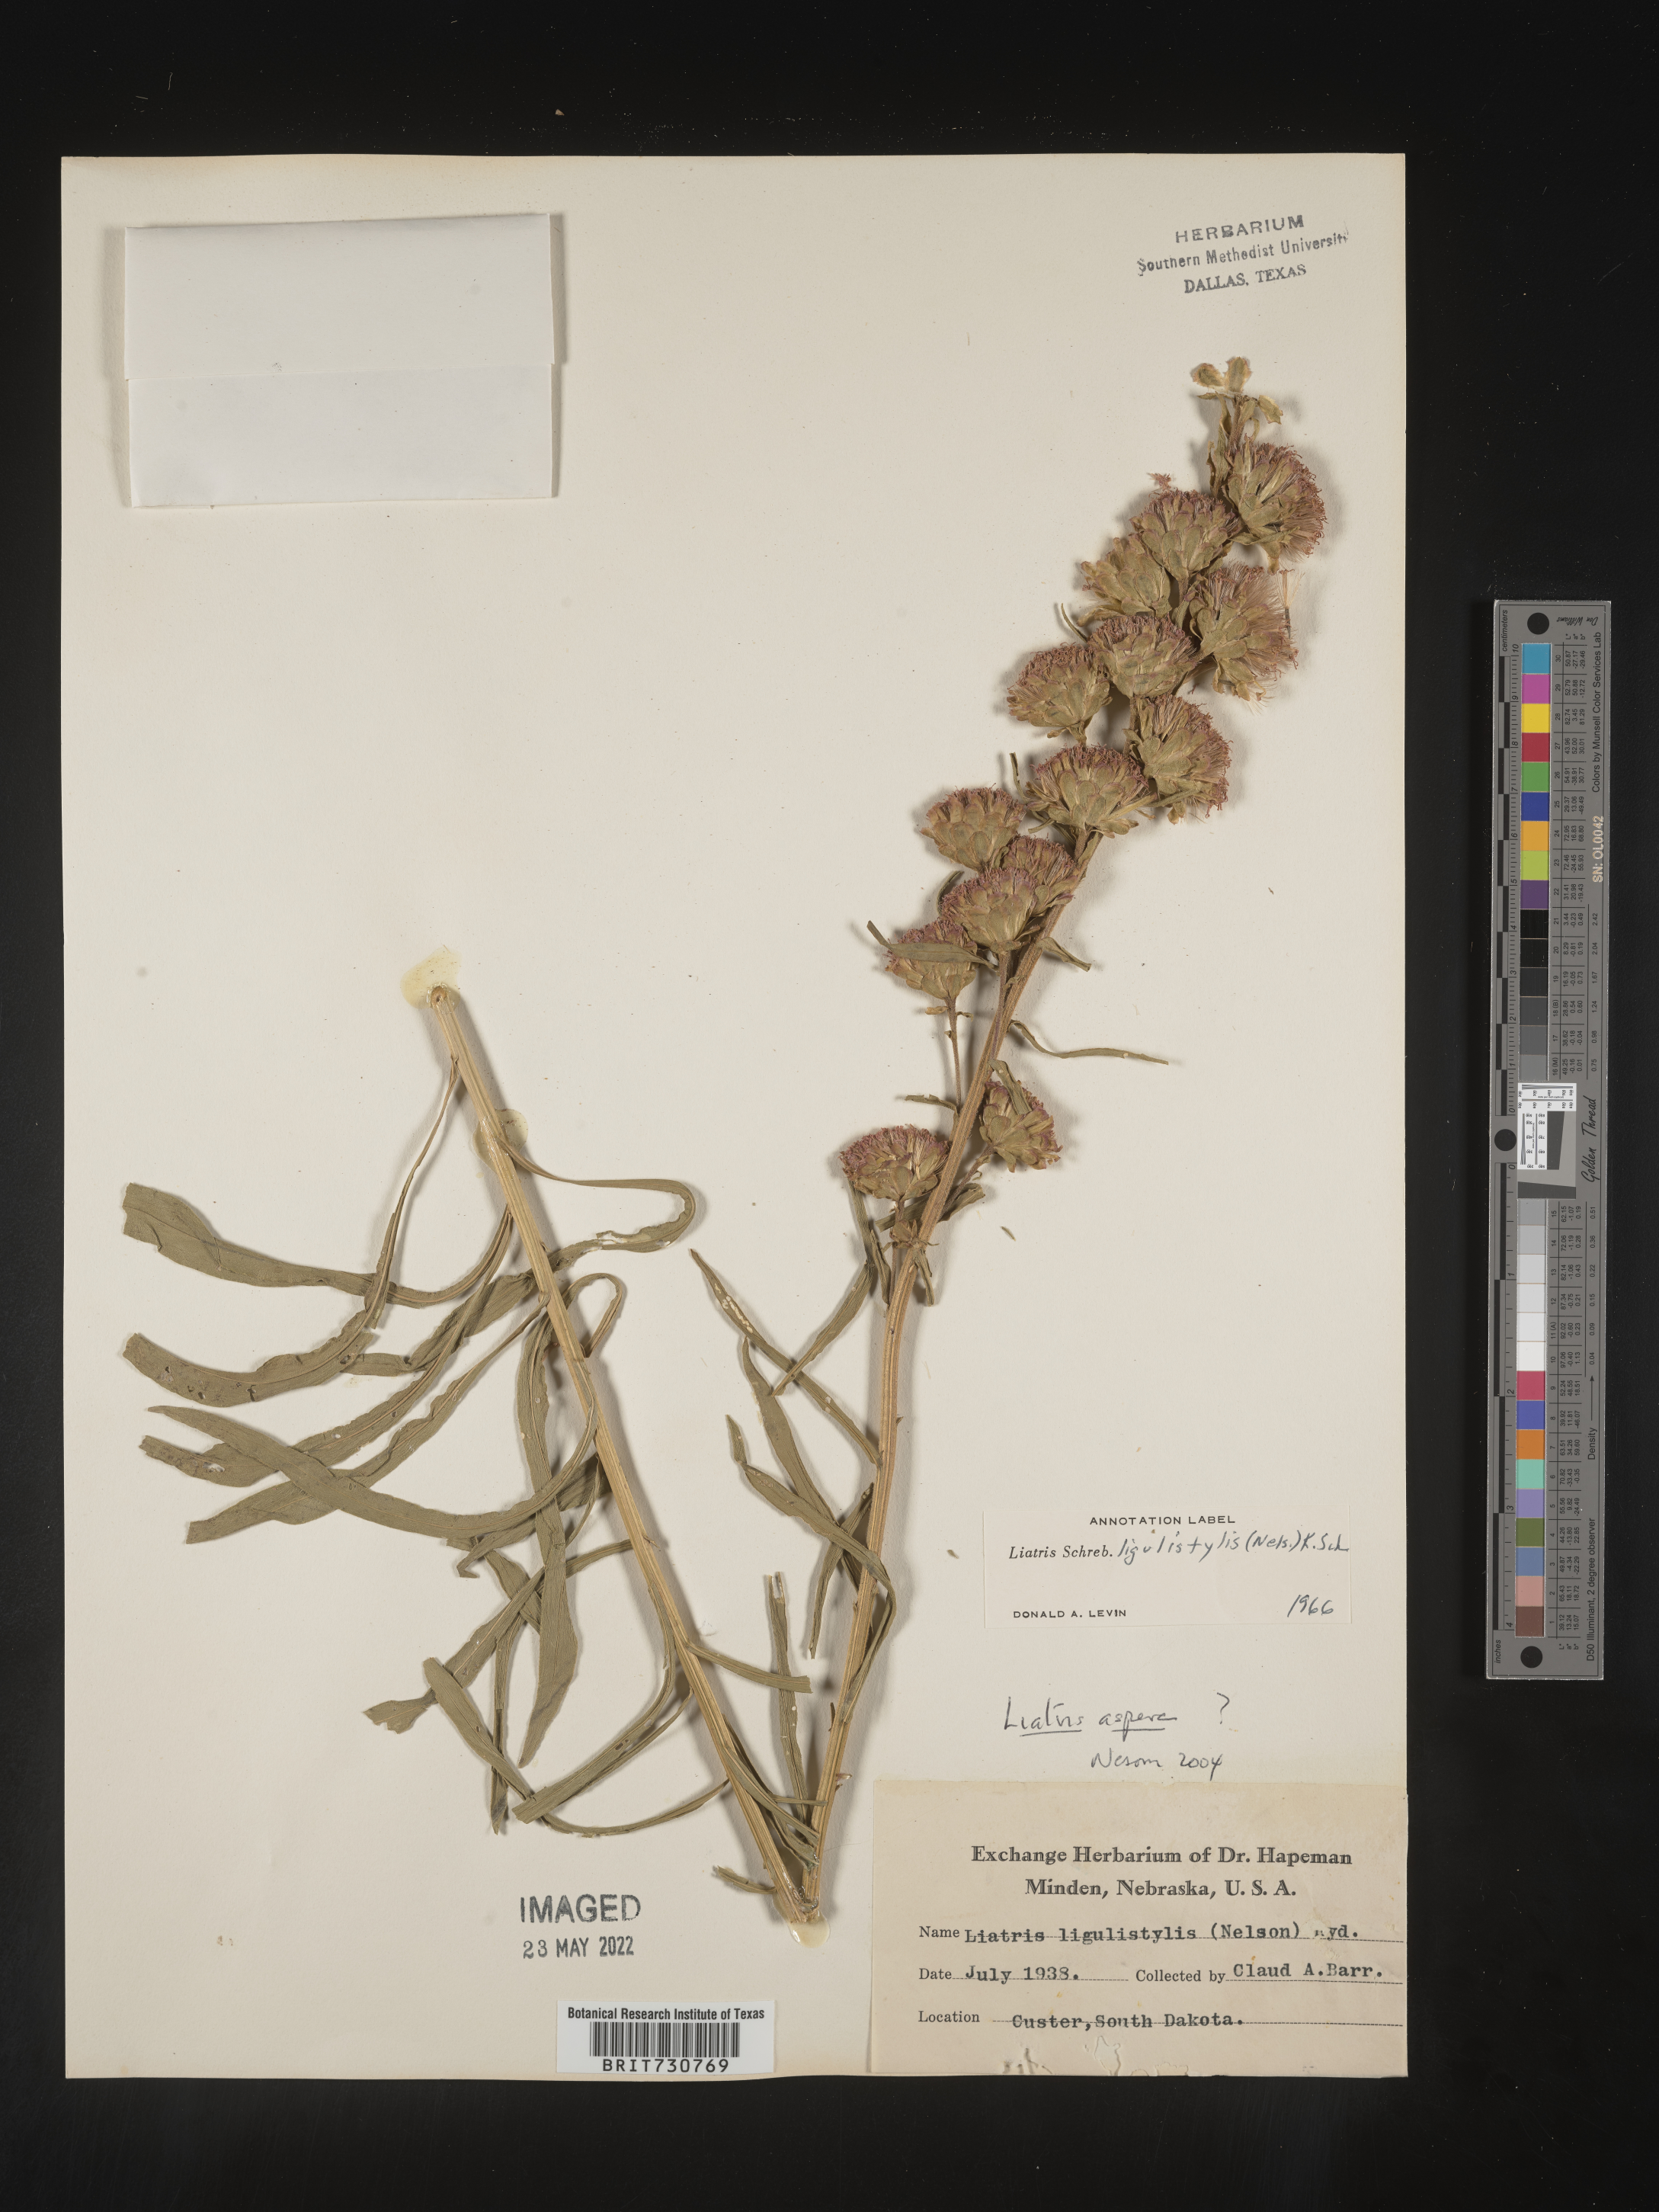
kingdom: Plantae
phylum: Tracheophyta
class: Magnoliopsida
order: Asterales
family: Asteraceae
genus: Liatris
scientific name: Liatris ligulistylis
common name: Northern plains gayfeather
